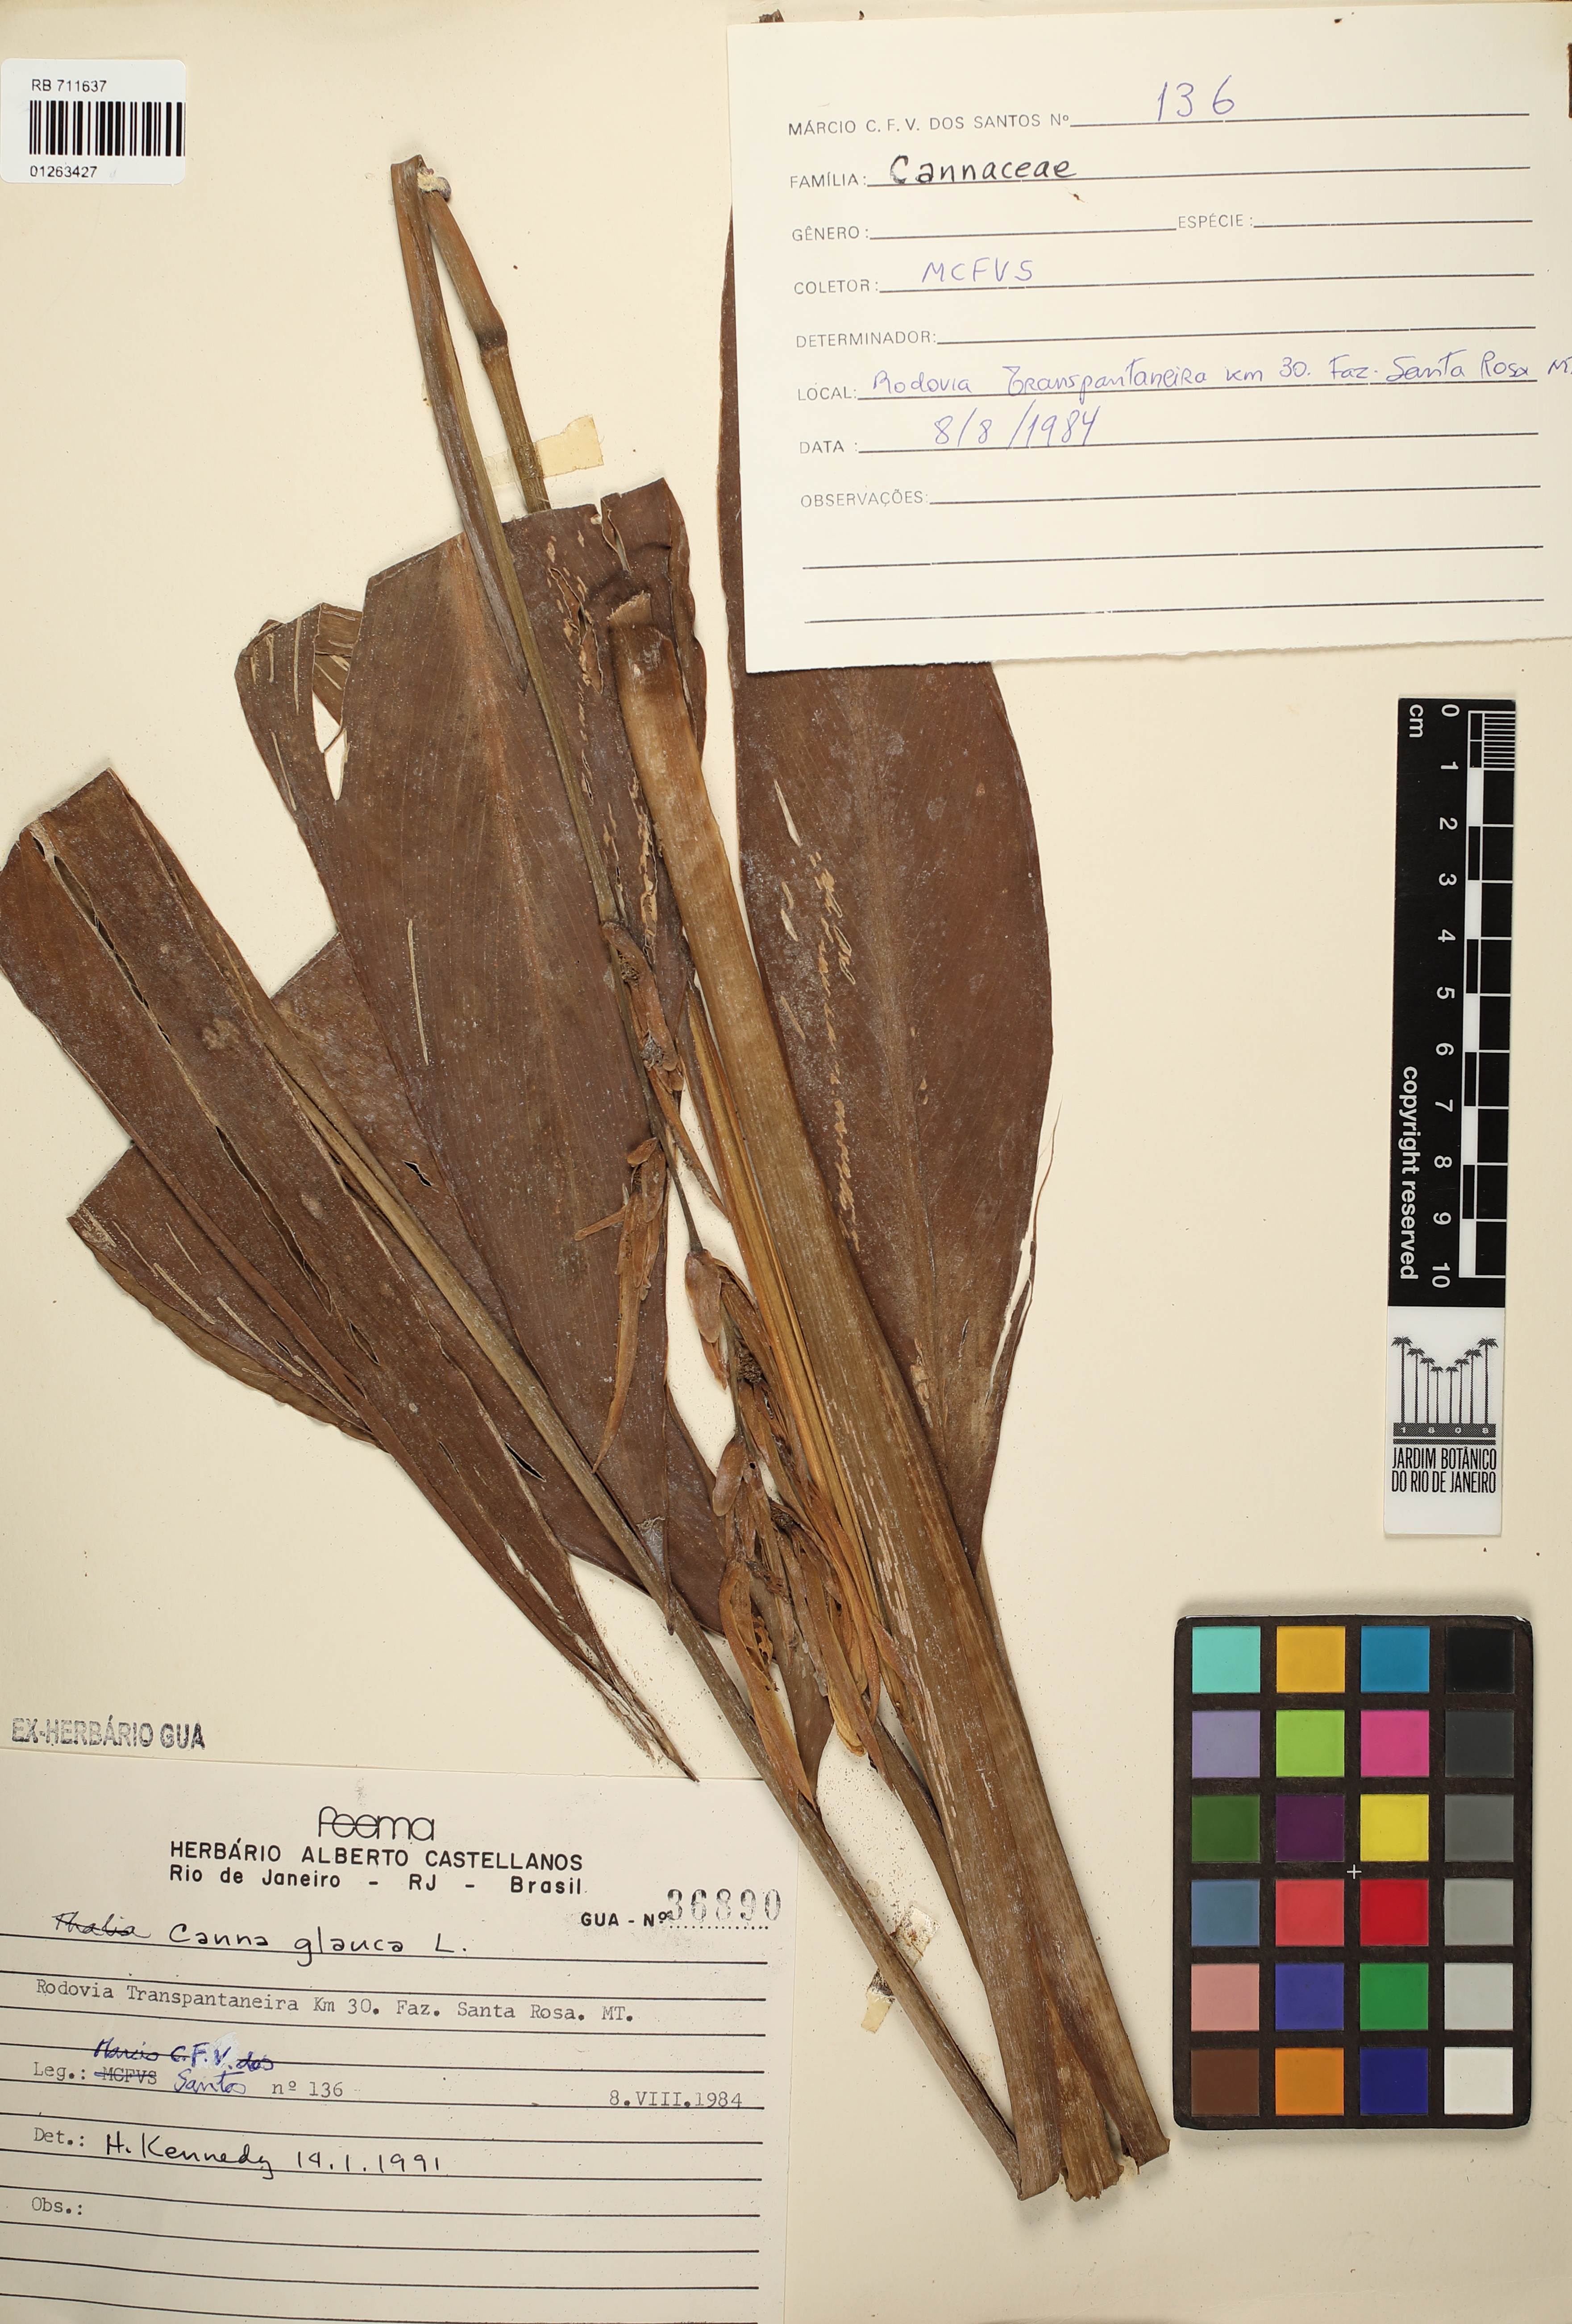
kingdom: Plantae
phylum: Tracheophyta
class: Liliopsida
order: Zingiberales
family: Cannaceae
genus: Canna
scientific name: Canna glauca
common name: Louisiana canna
